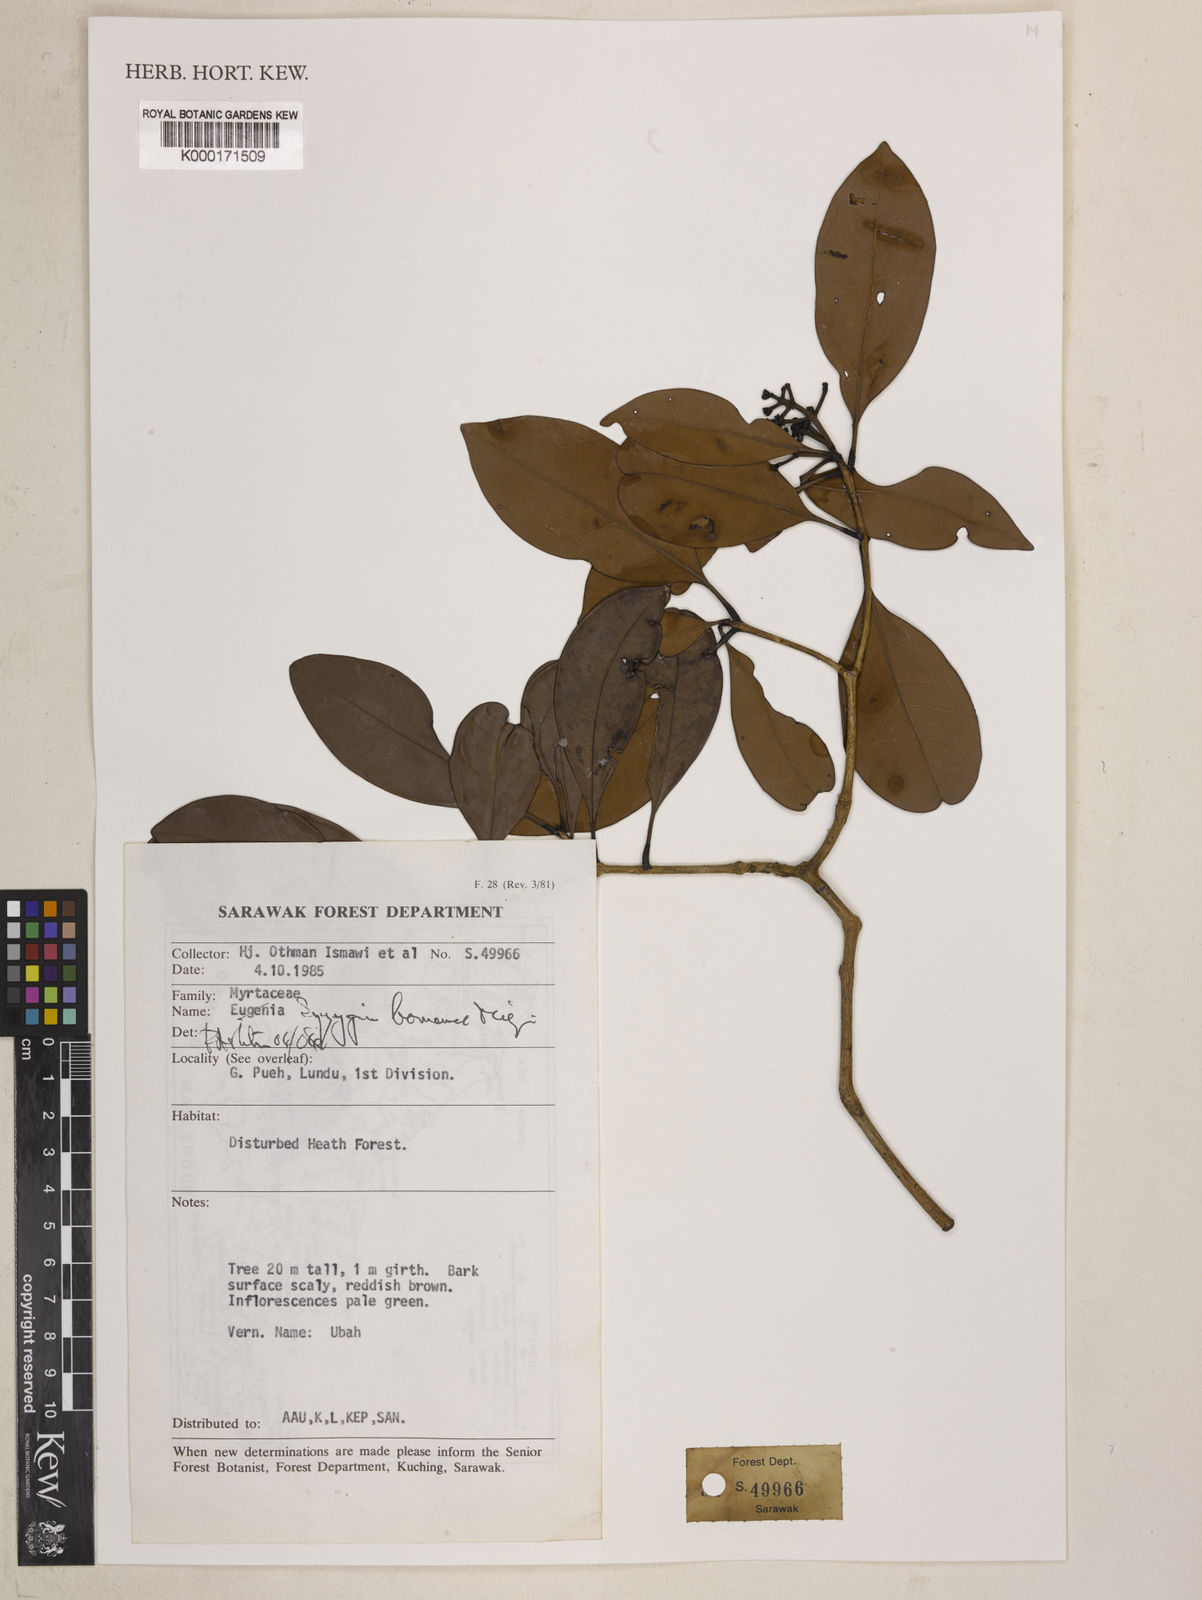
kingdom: Plantae
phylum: Tracheophyta
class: Magnoliopsida
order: Myrtales
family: Myrtaceae
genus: Syzygium
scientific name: Syzygium borneense
